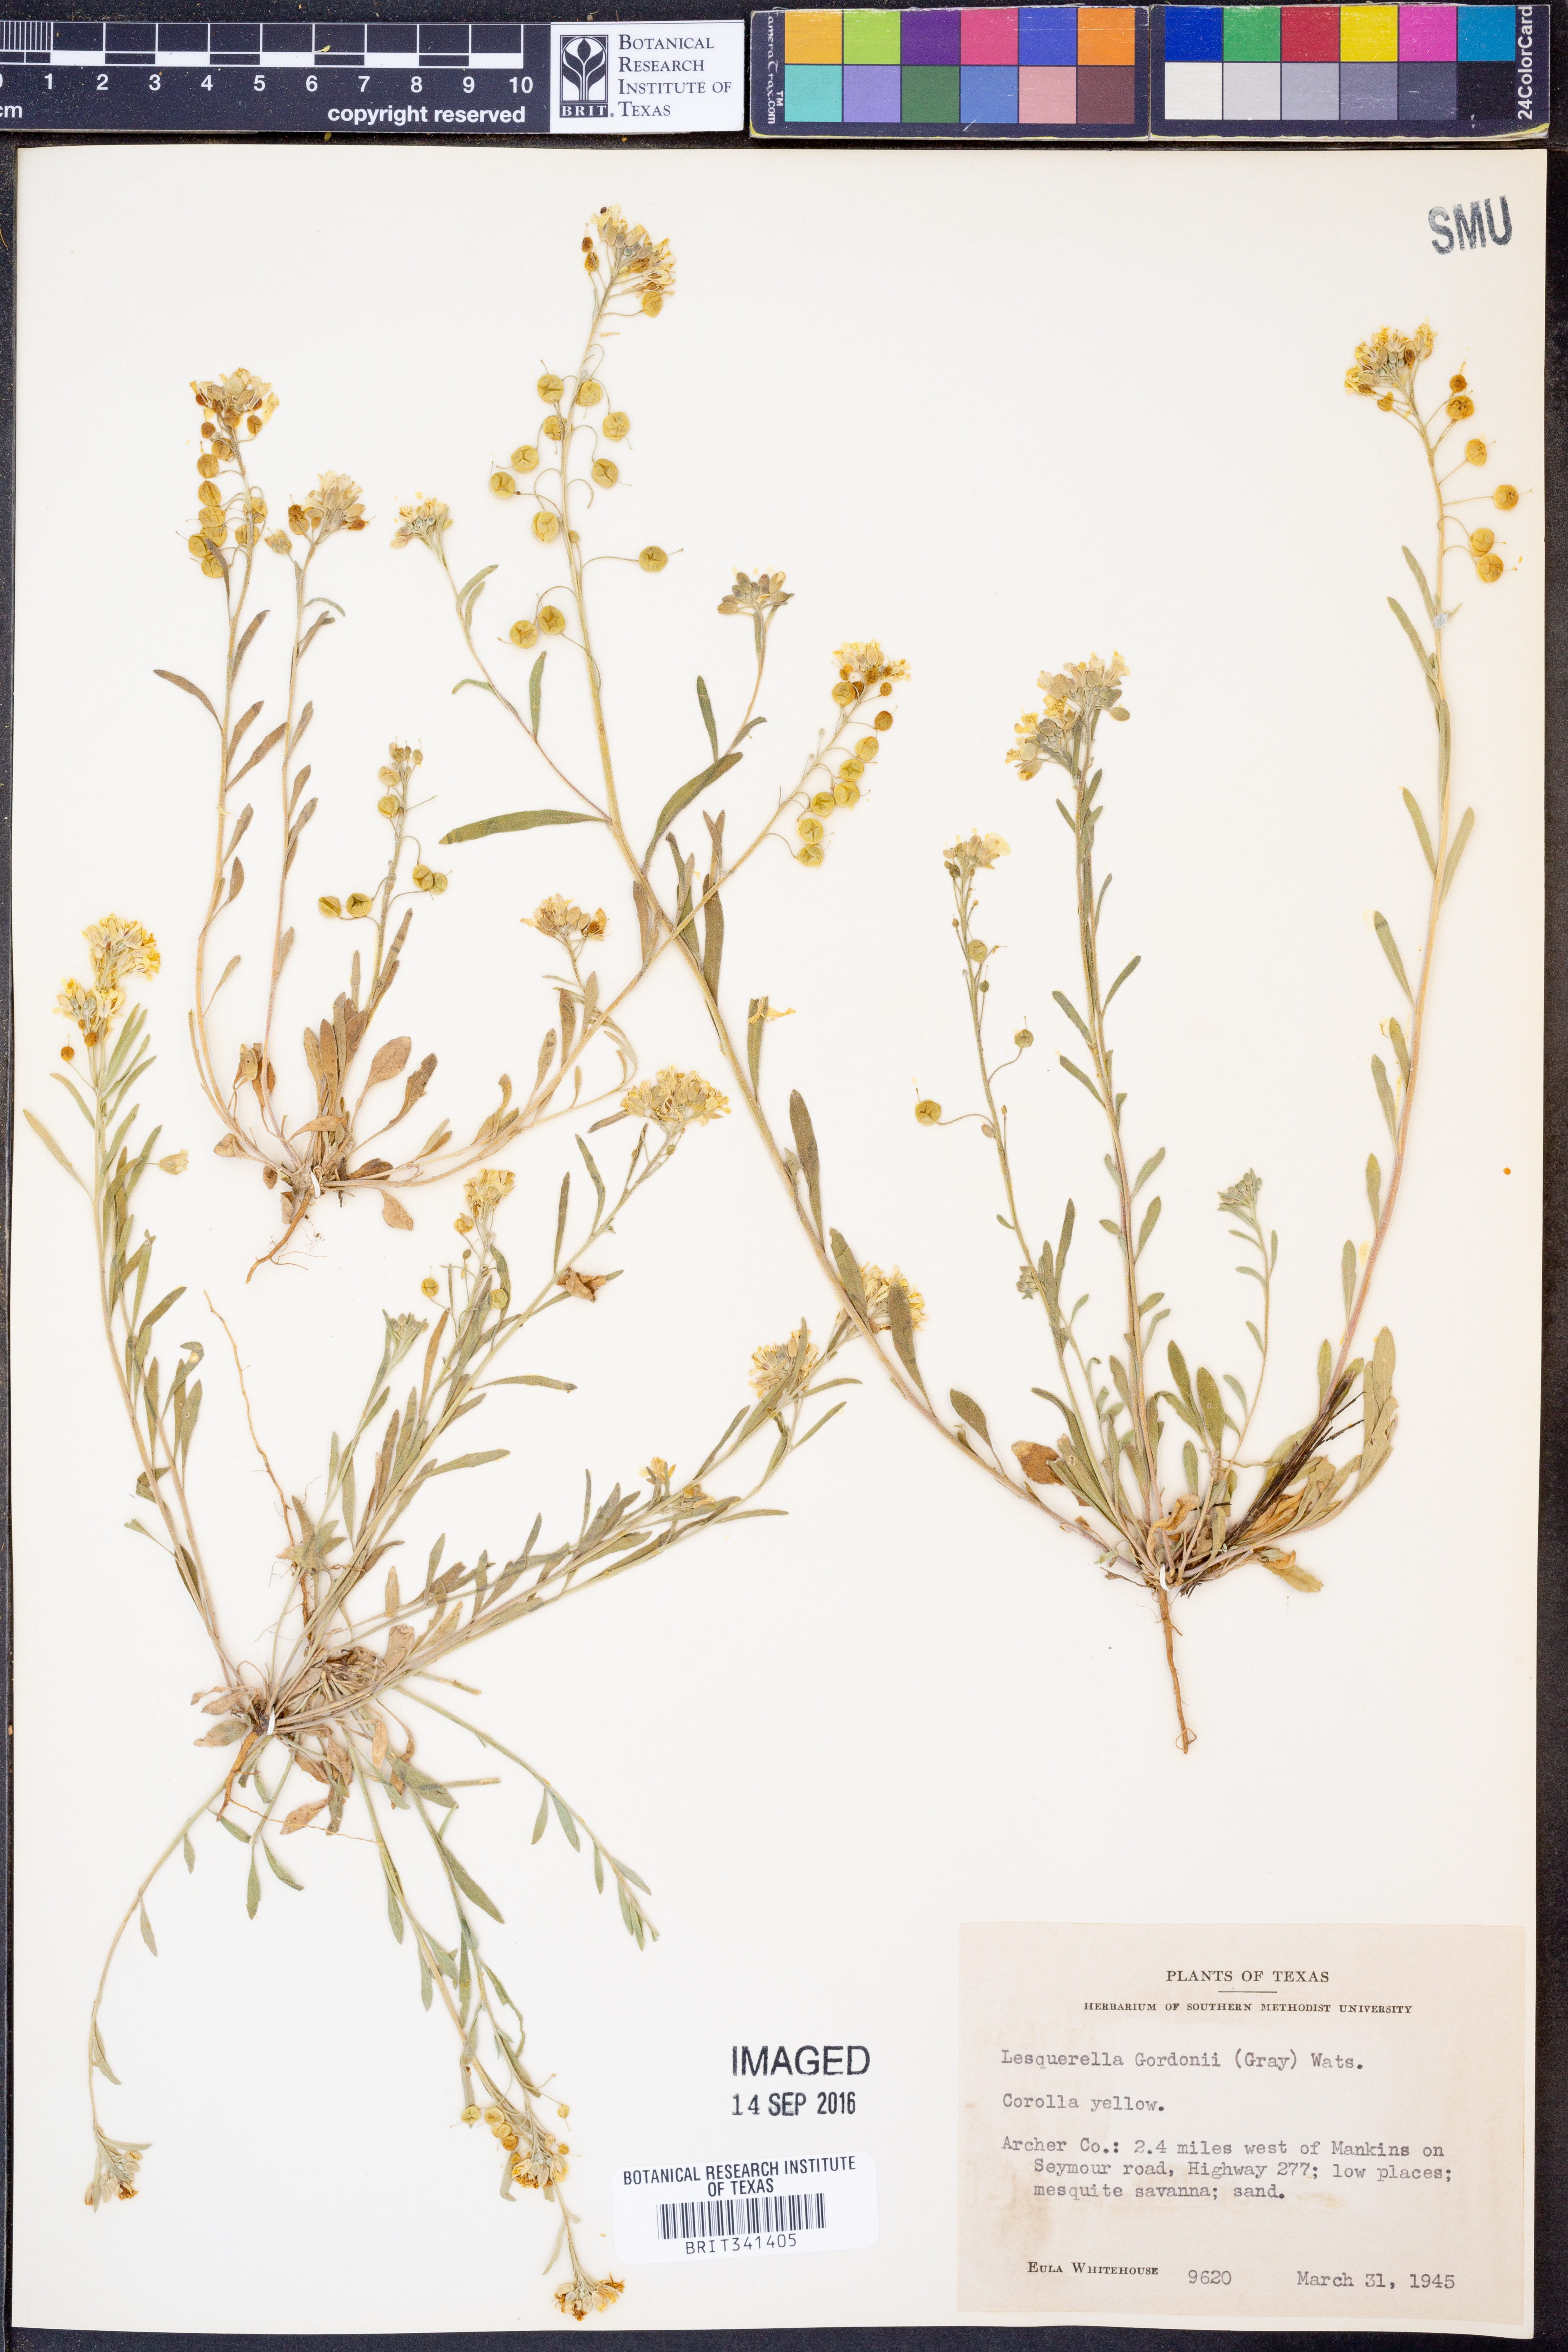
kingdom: Plantae
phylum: Tracheophyta
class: Magnoliopsida
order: Brassicales
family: Brassicaceae
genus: Physaria
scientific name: Physaria gordonii
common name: Gordon's bladderpod
